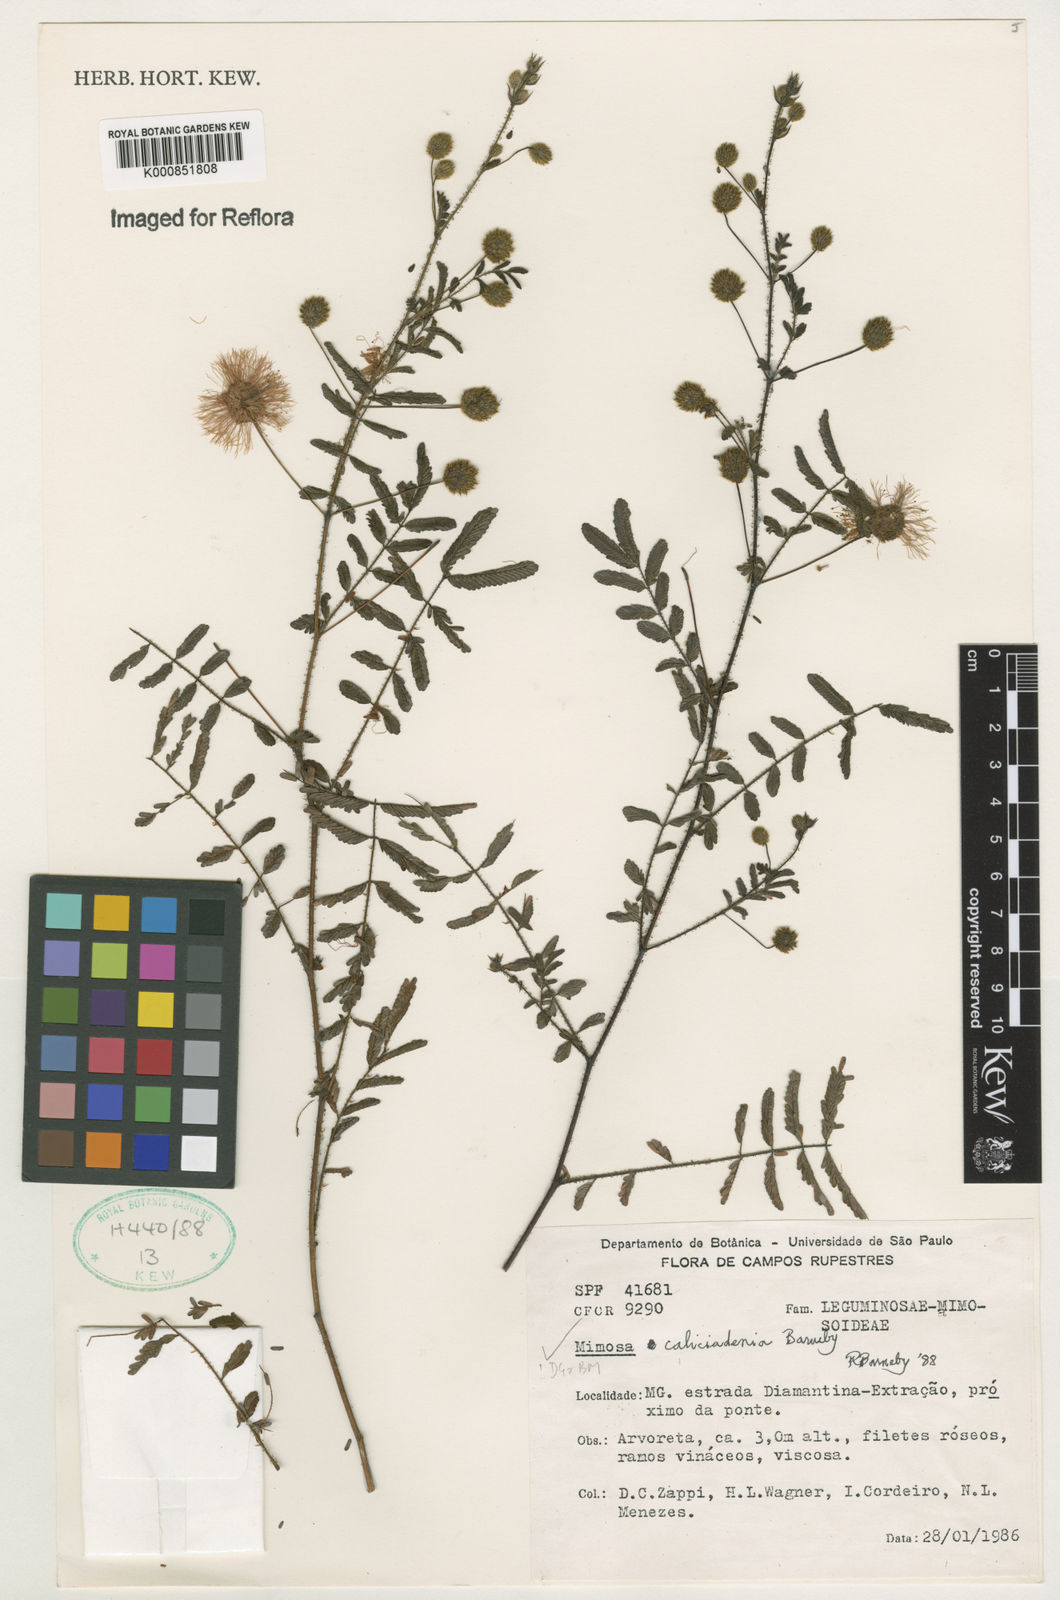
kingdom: Plantae
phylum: Tracheophyta
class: Magnoliopsida
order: Fabales
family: Fabaceae
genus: Mimosa
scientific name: Mimosa caliciadenia
